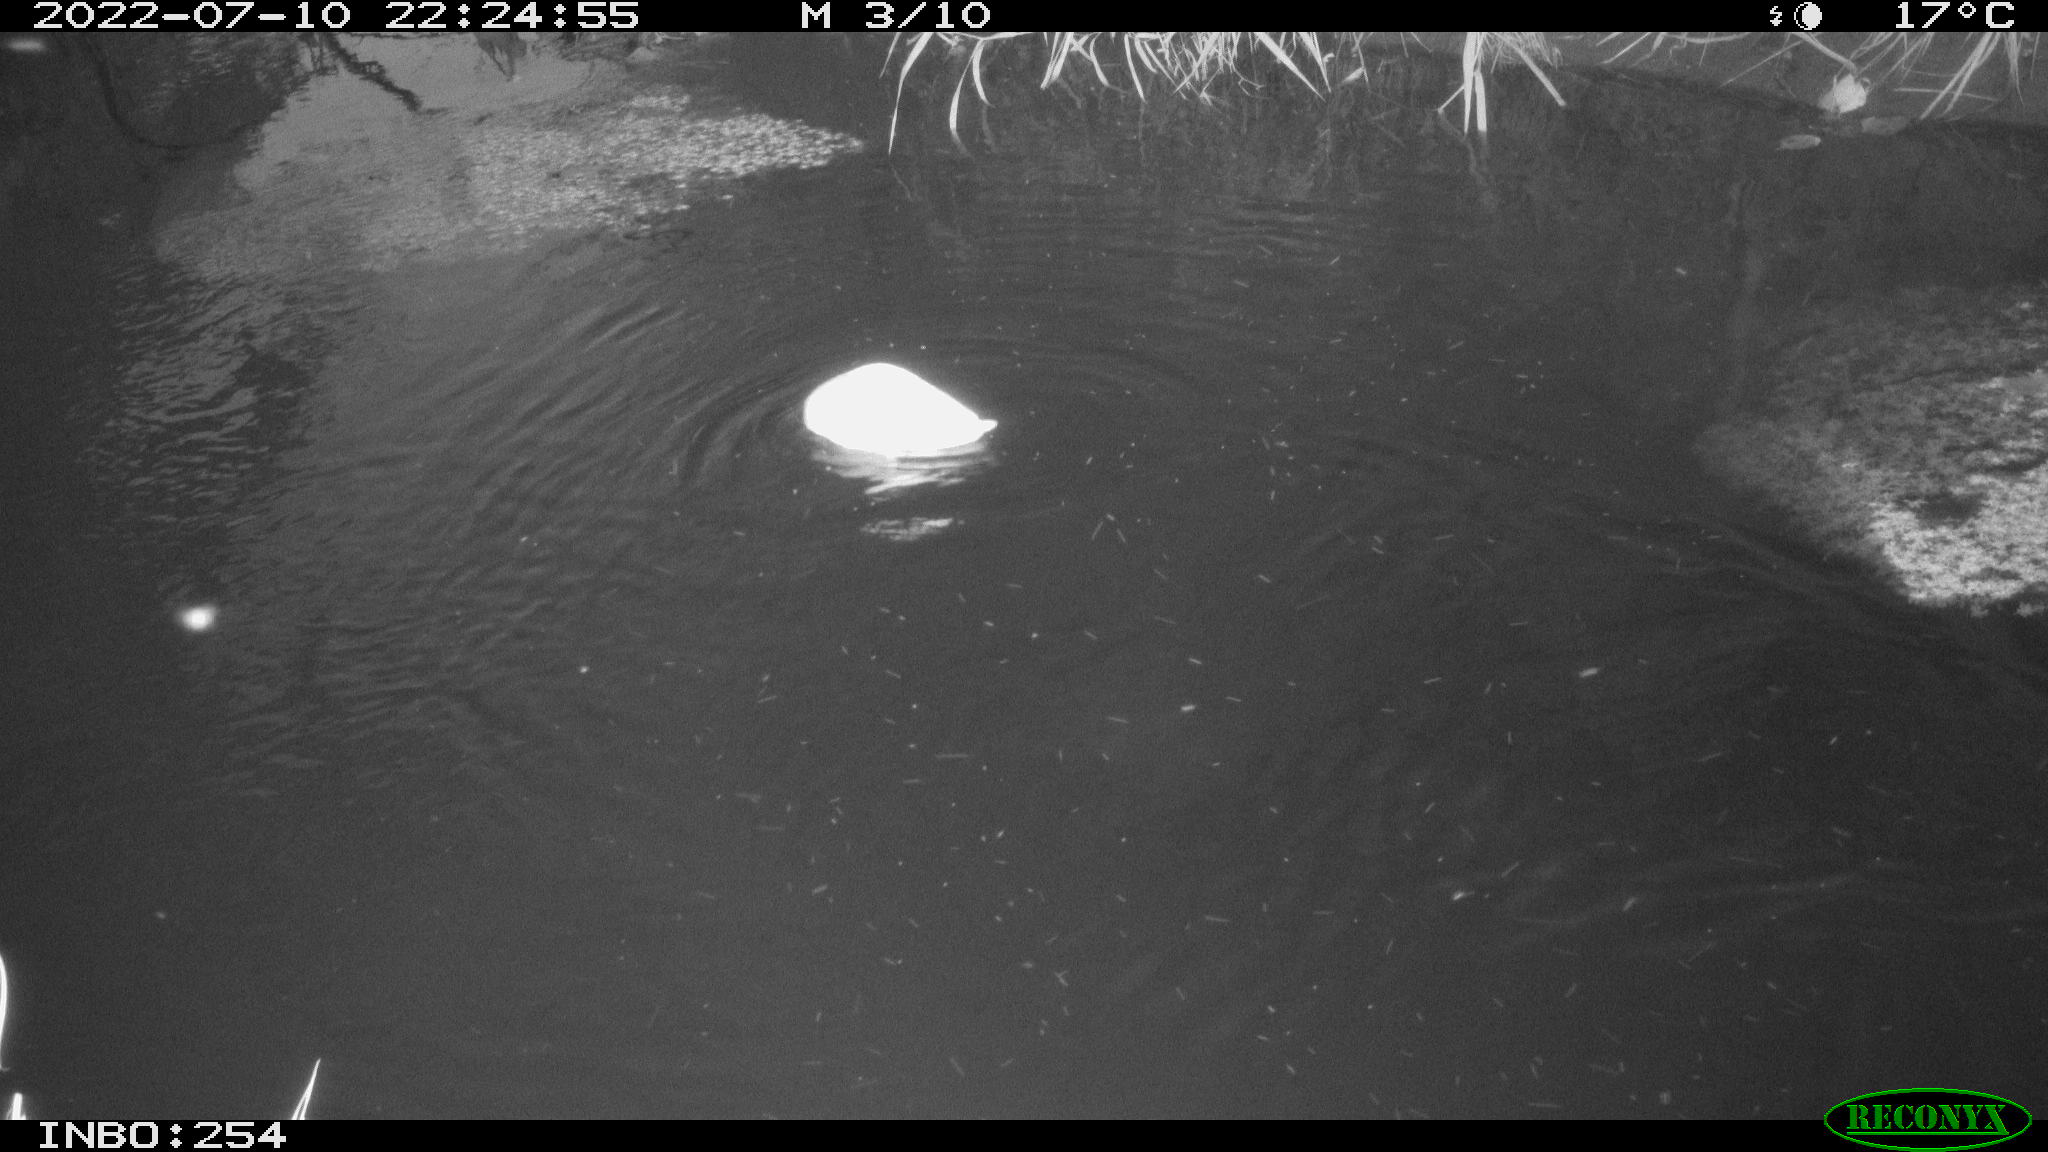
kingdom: Animalia
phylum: Chordata
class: Aves
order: Anseriformes
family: Anatidae
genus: Anas
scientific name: Anas platyrhynchos
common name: Mallard
